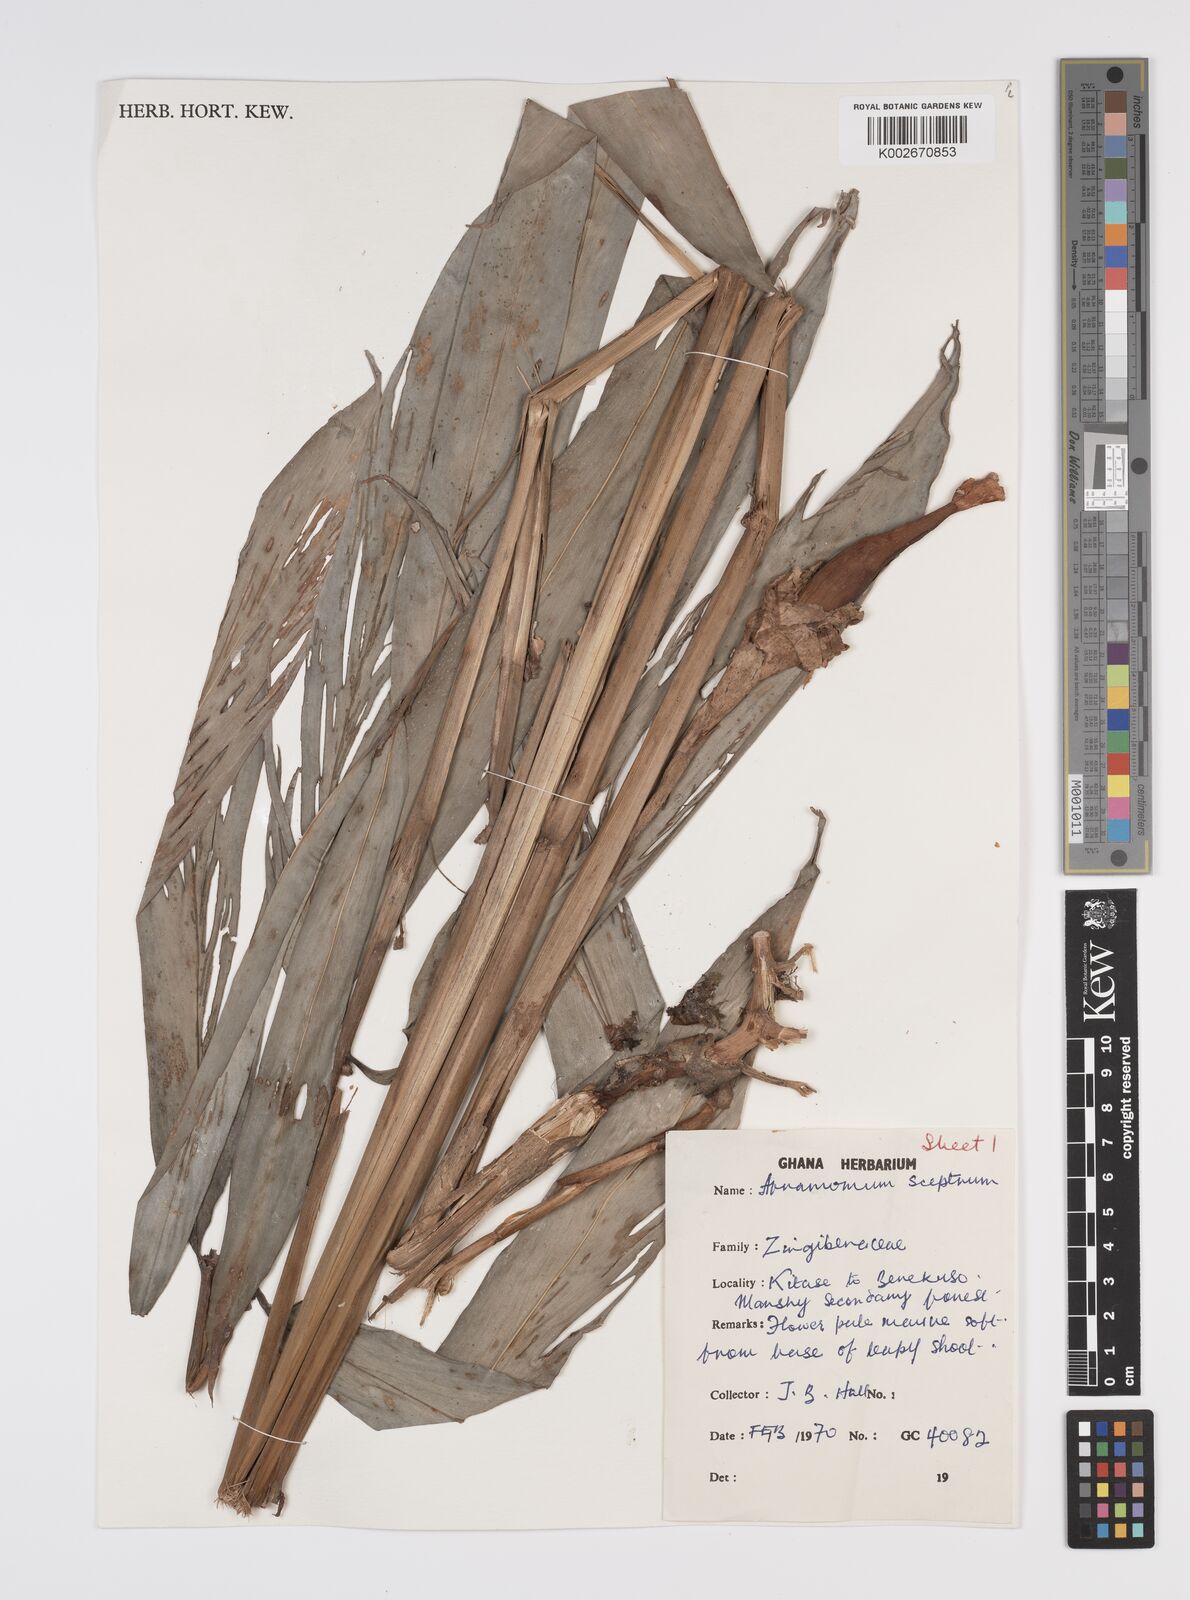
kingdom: Plantae
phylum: Tracheophyta
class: Liliopsida
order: Zingiberales
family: Zingiberaceae
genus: Aframomum
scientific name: Aframomum cereum
